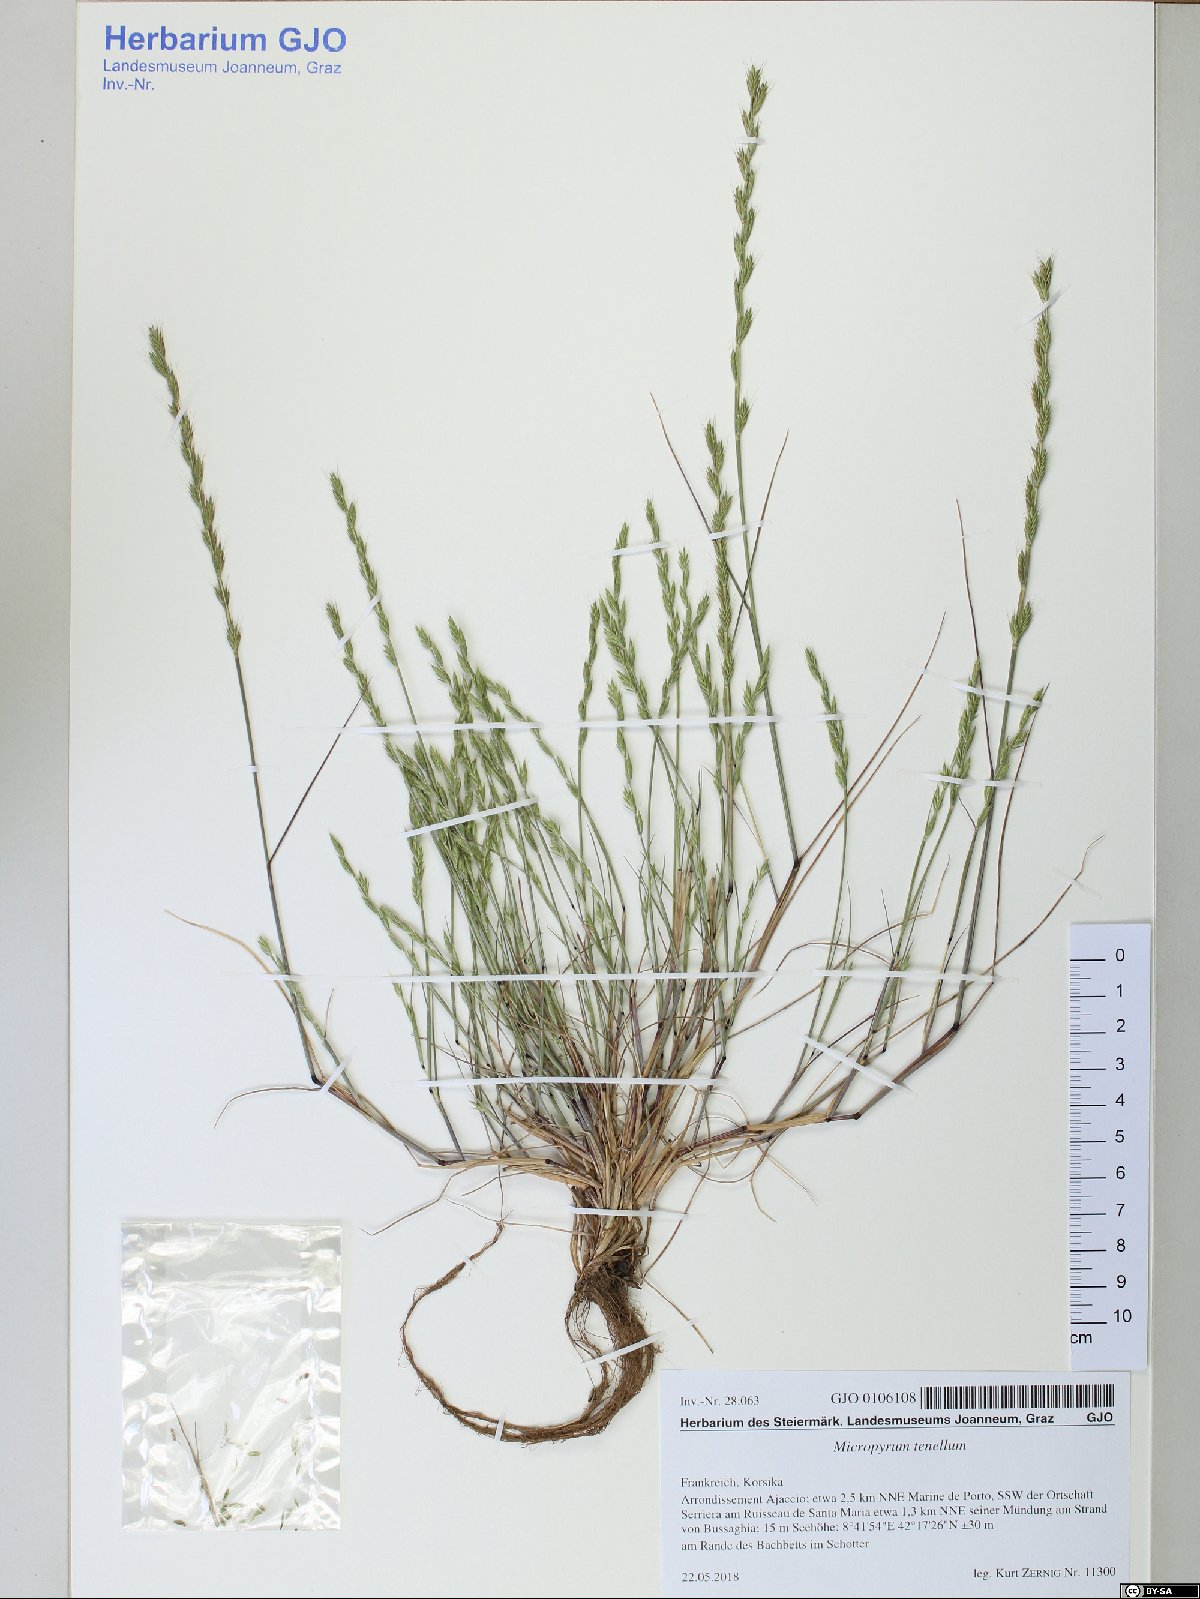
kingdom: Plantae
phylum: Tracheophyta
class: Liliopsida
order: Poales
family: Poaceae
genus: Festuca
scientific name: Festuca lachenalii
